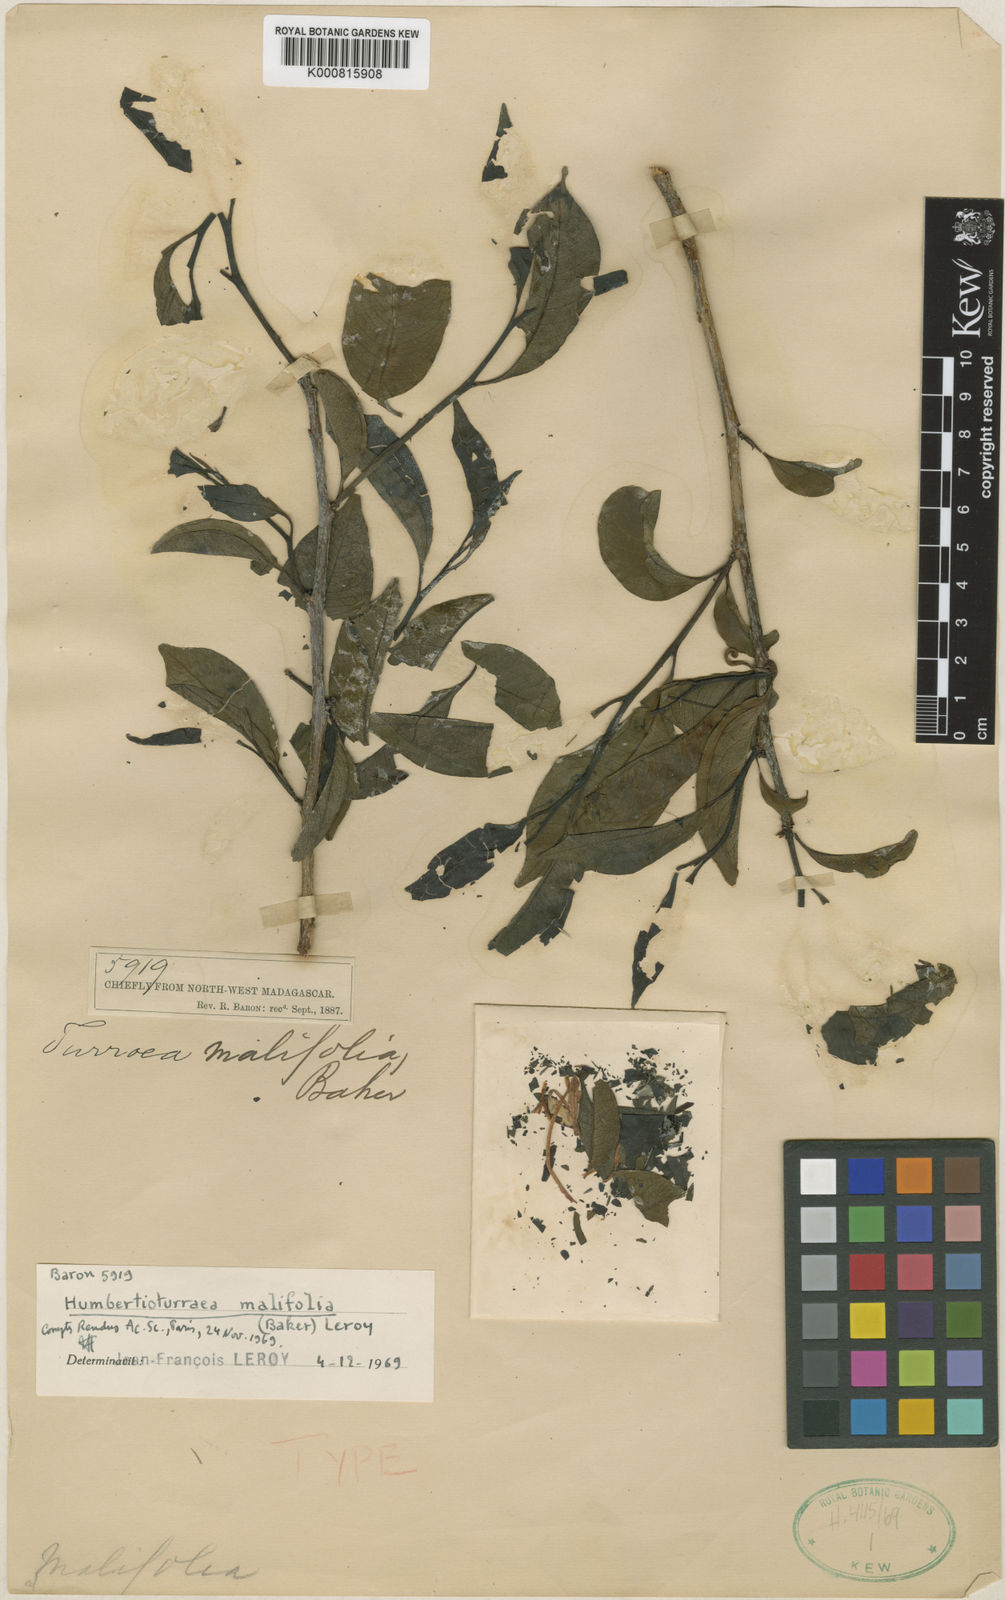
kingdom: Plantae
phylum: Tracheophyta
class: Magnoliopsida
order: Sapindales
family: Meliaceae
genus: Humbertioturraea
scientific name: Humbertioturraea malifolia
